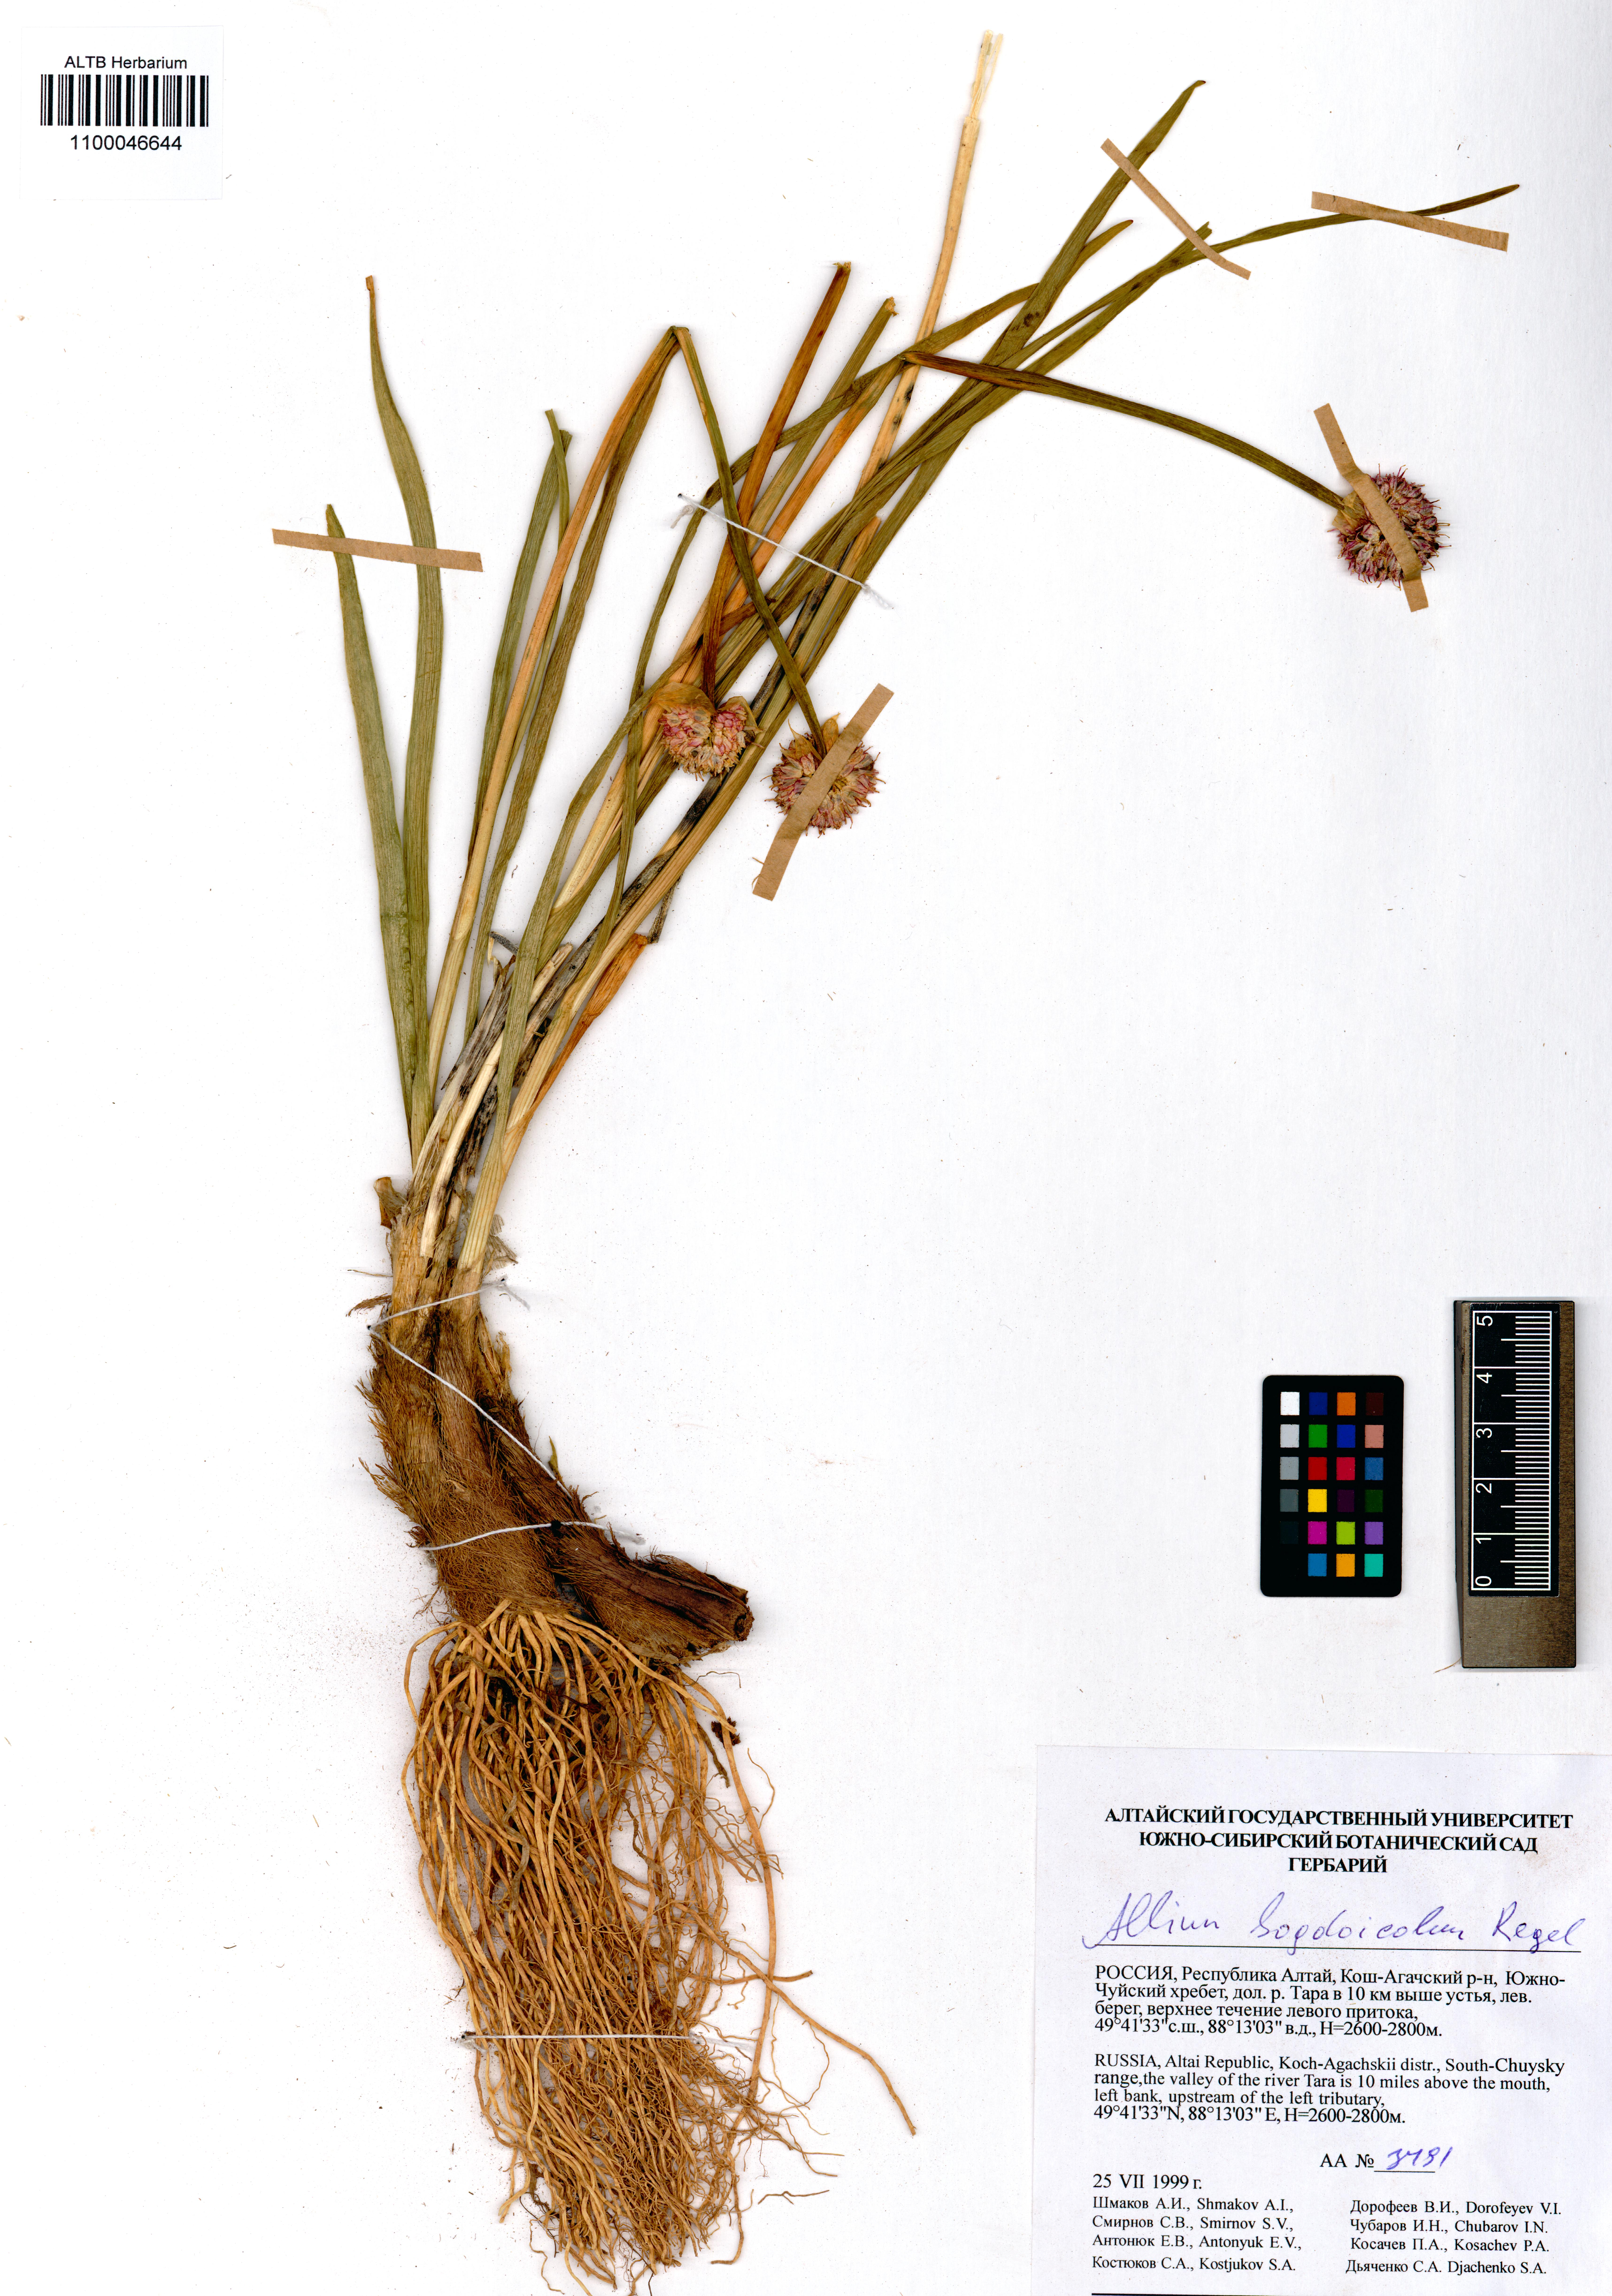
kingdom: Plantae
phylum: Tracheophyta
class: Liliopsida
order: Asparagales
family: Amaryllidaceae
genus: Allium
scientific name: Allium schrenkii
